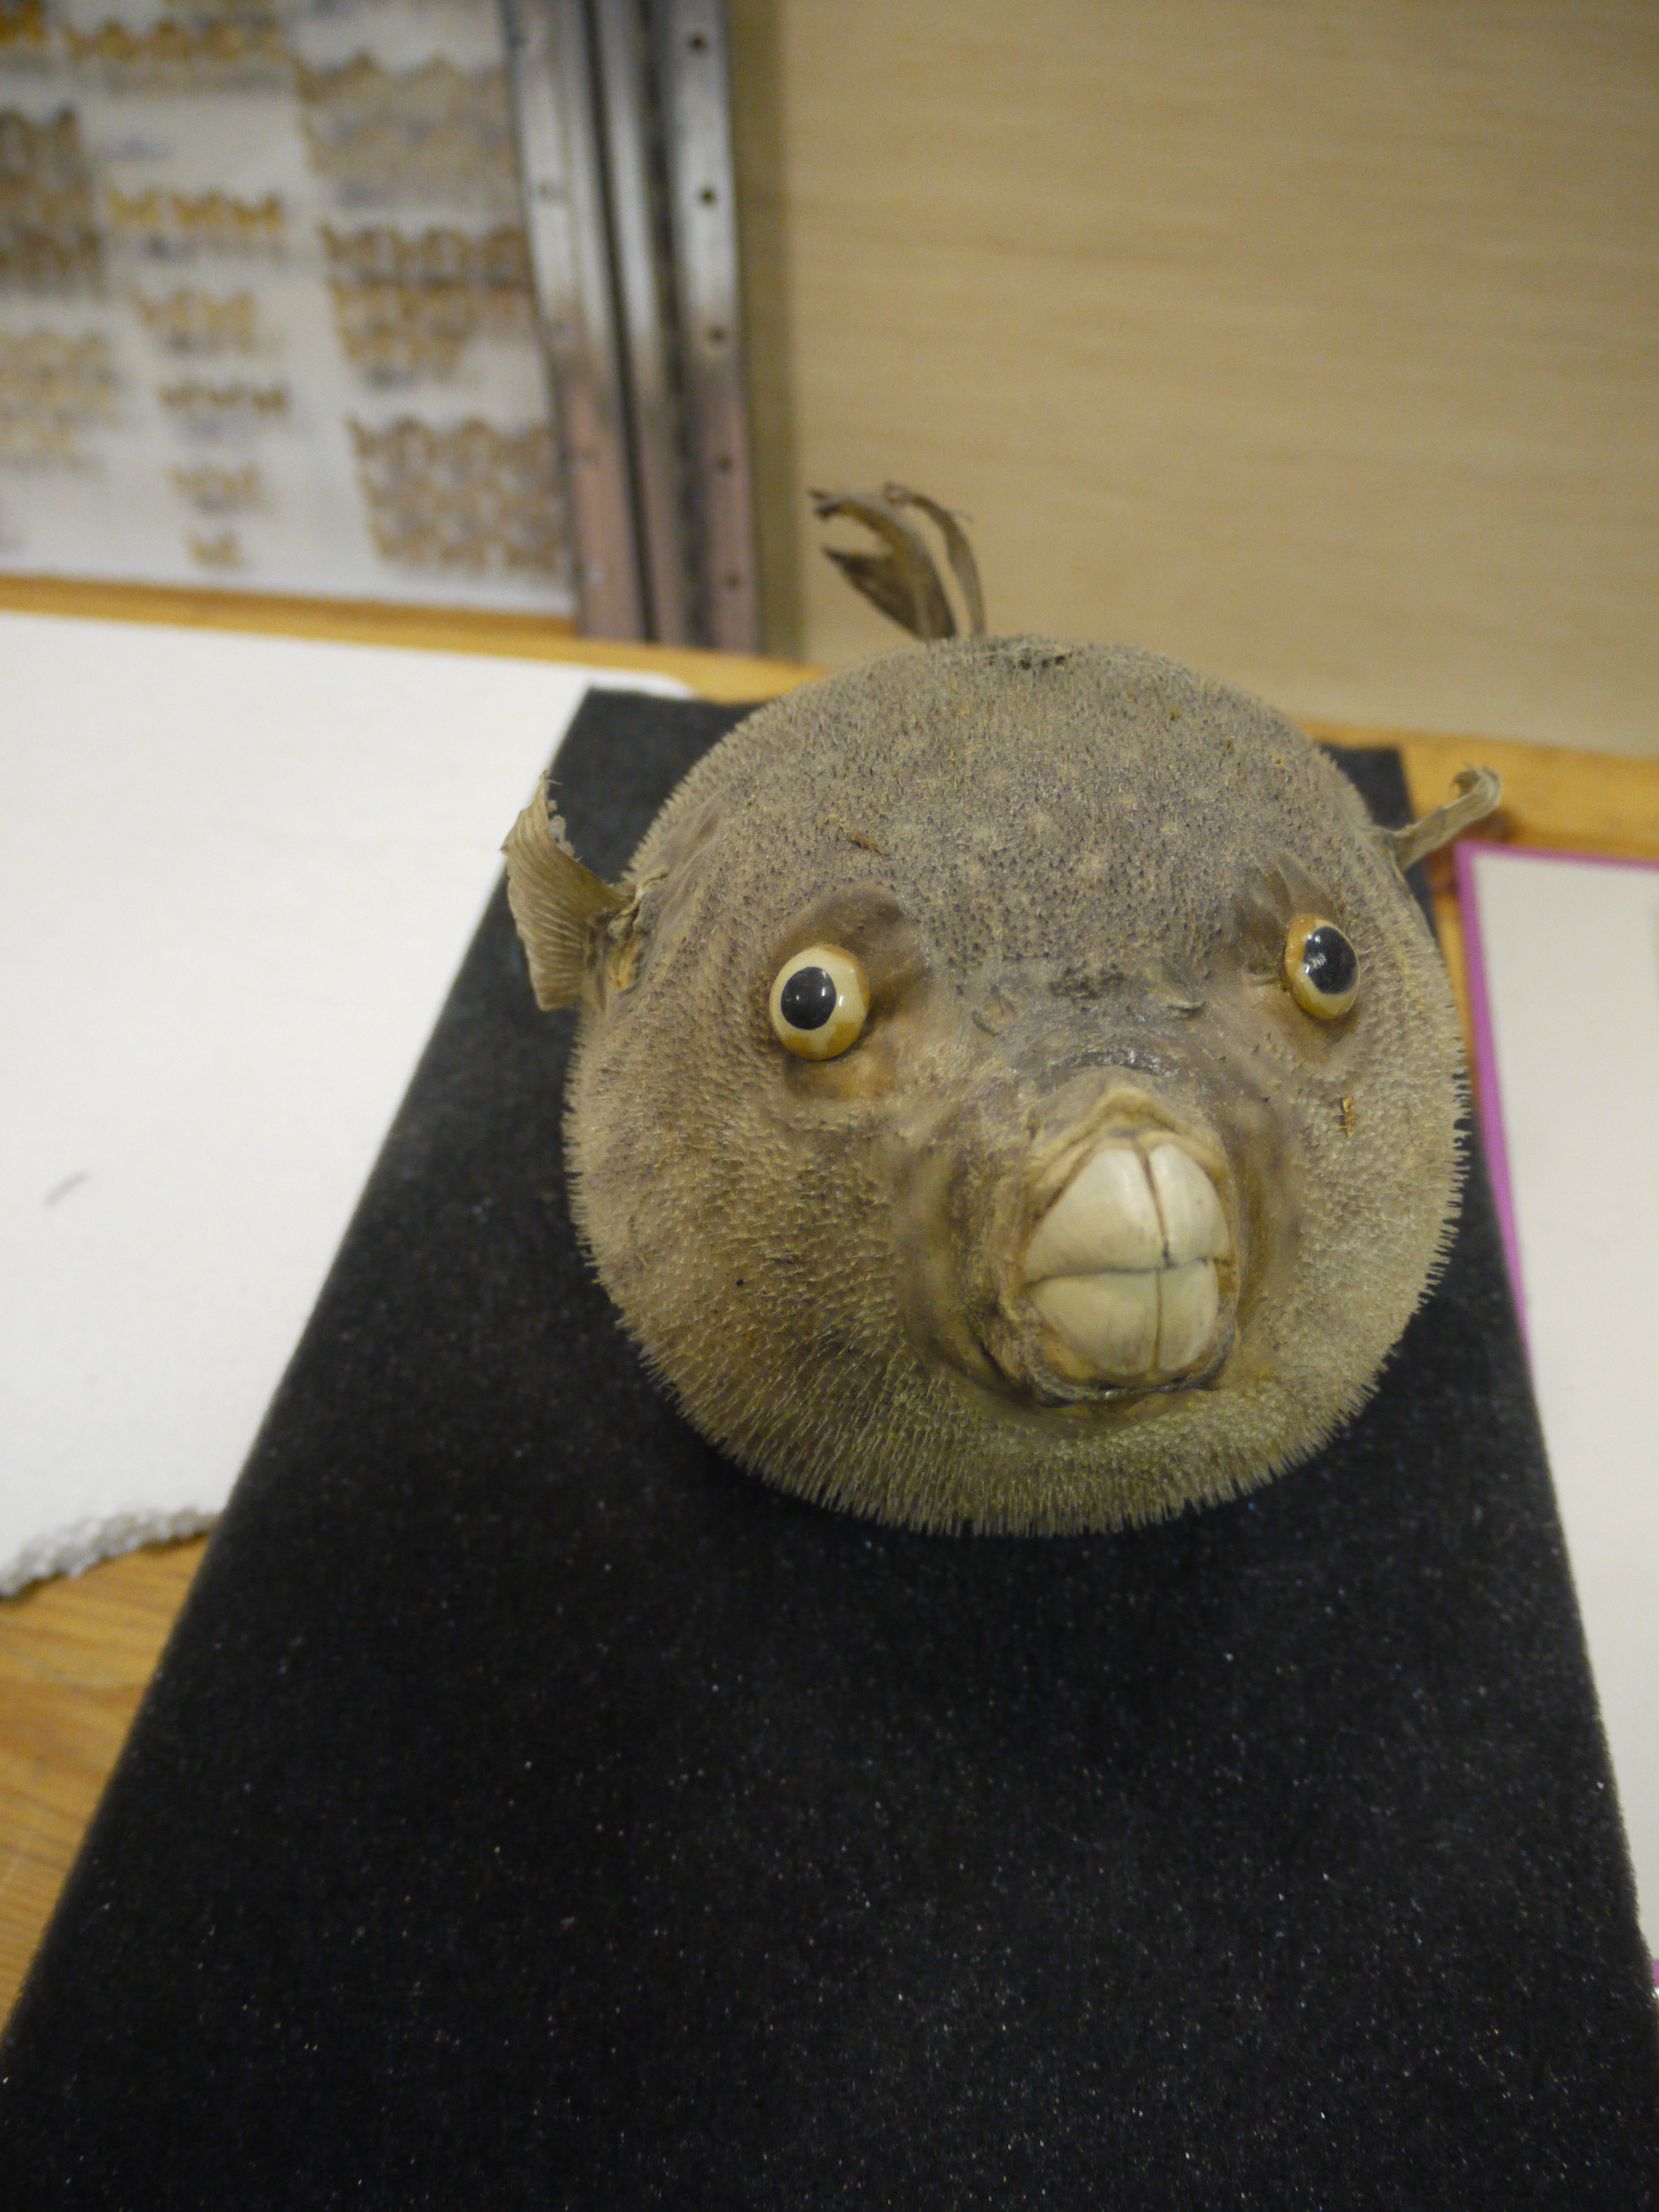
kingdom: Animalia
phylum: Chordata
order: Tetraodontiformes
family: Diodontidae
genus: Diodon
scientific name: Diodon hystrix
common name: Giant porcupinefish
